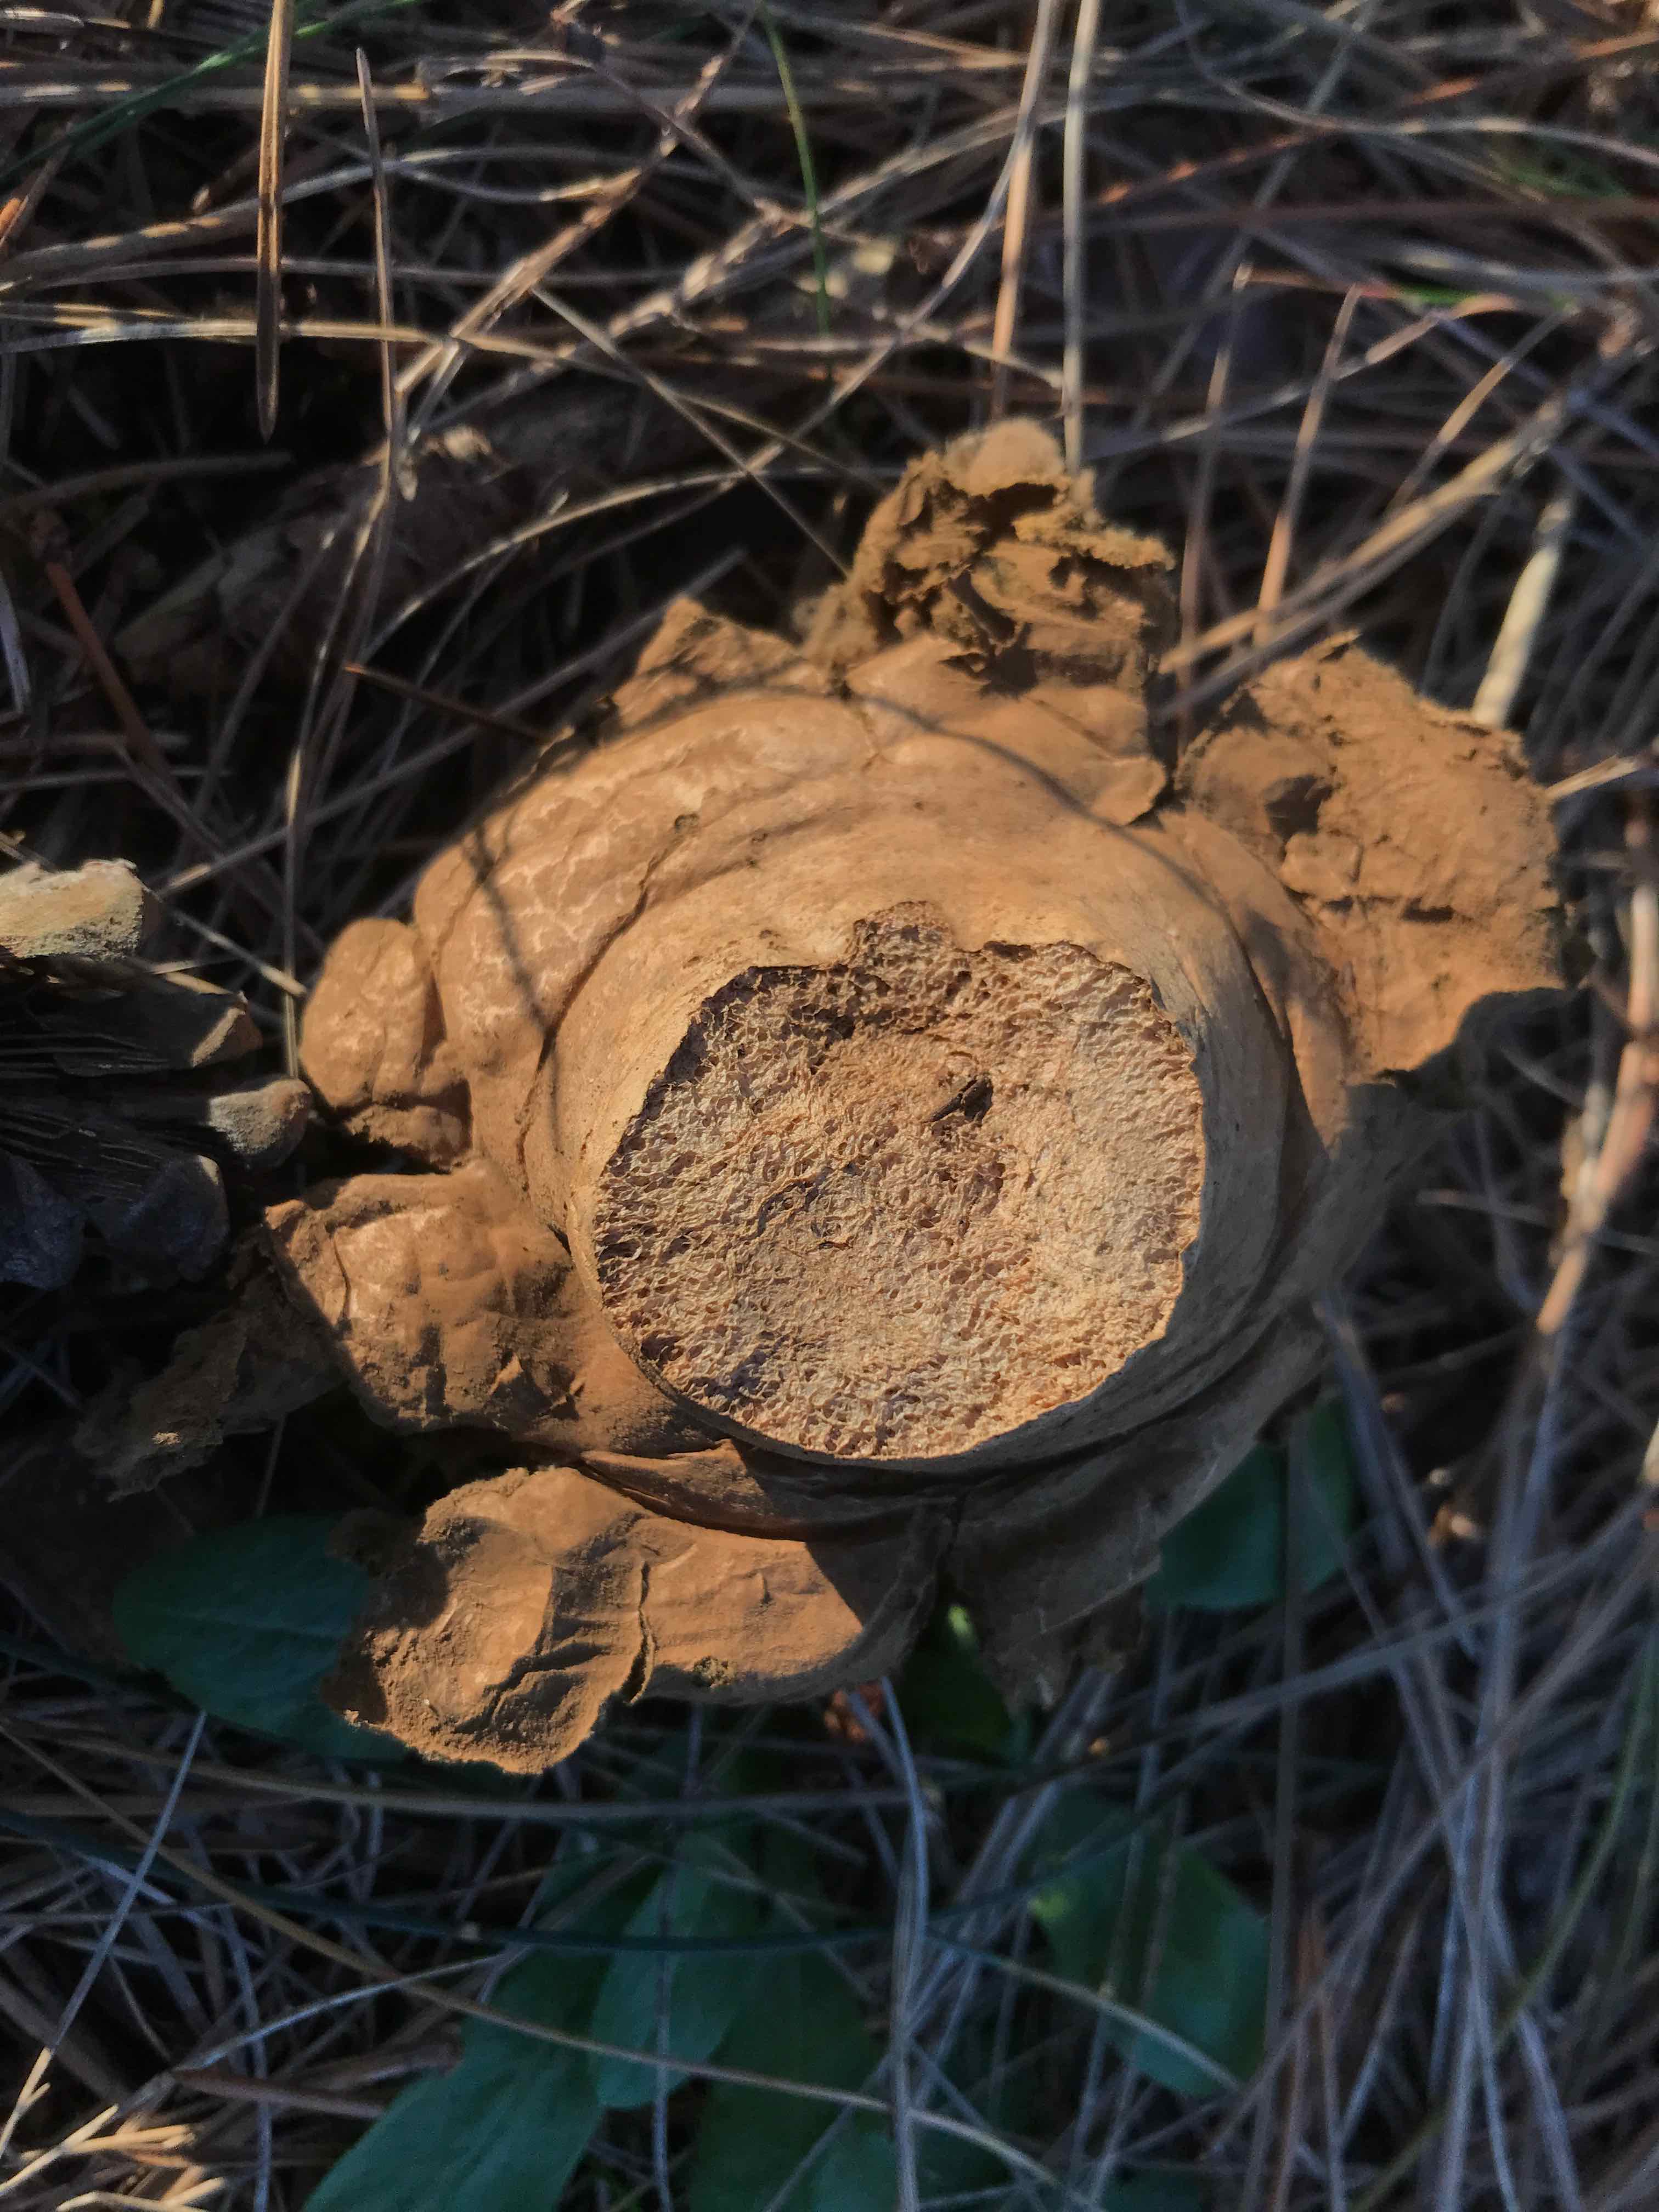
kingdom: Fungi
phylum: Basidiomycota
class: Agaricomycetes
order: Agaricales
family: Agaricaceae
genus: Lycoperdon
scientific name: Lycoperdon
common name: støvbold
